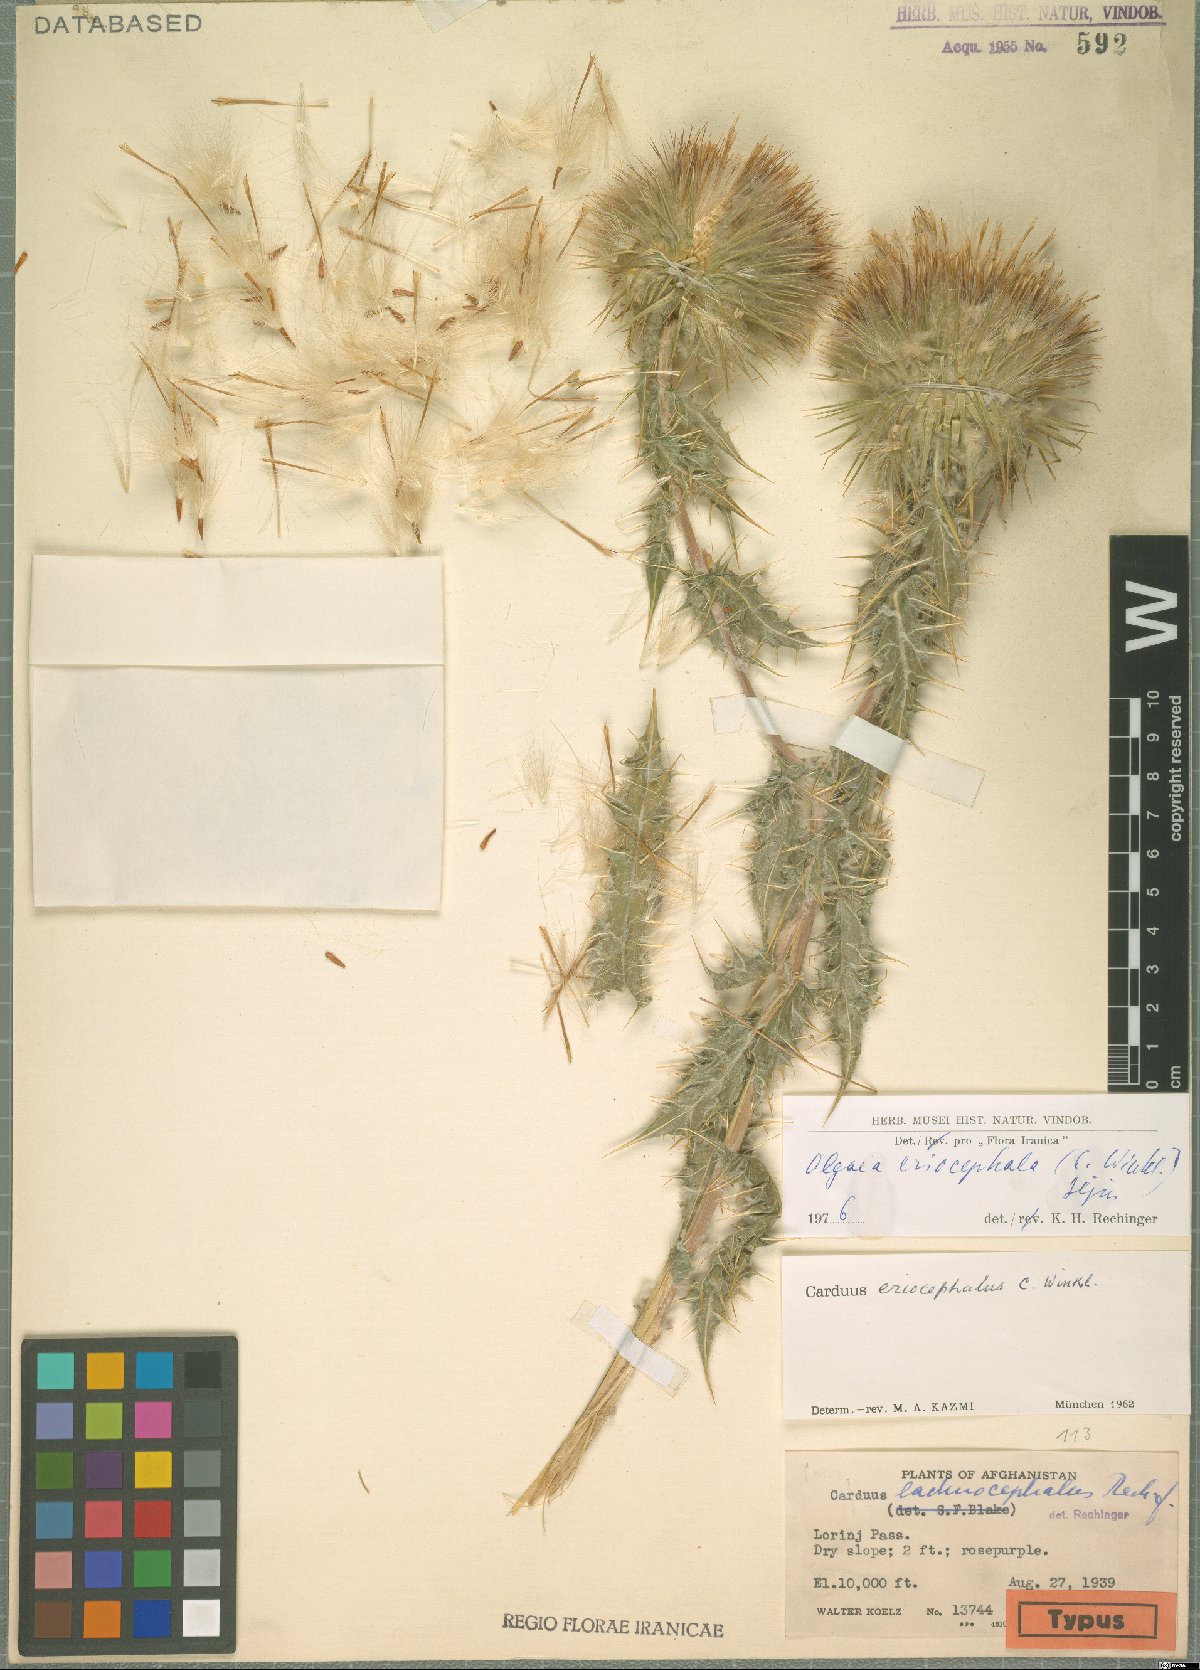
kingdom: Plantae
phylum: Tracheophyta
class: Magnoliopsida
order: Asterales
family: Asteraceae
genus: Olgaea
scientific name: Olgaea eriocephala
